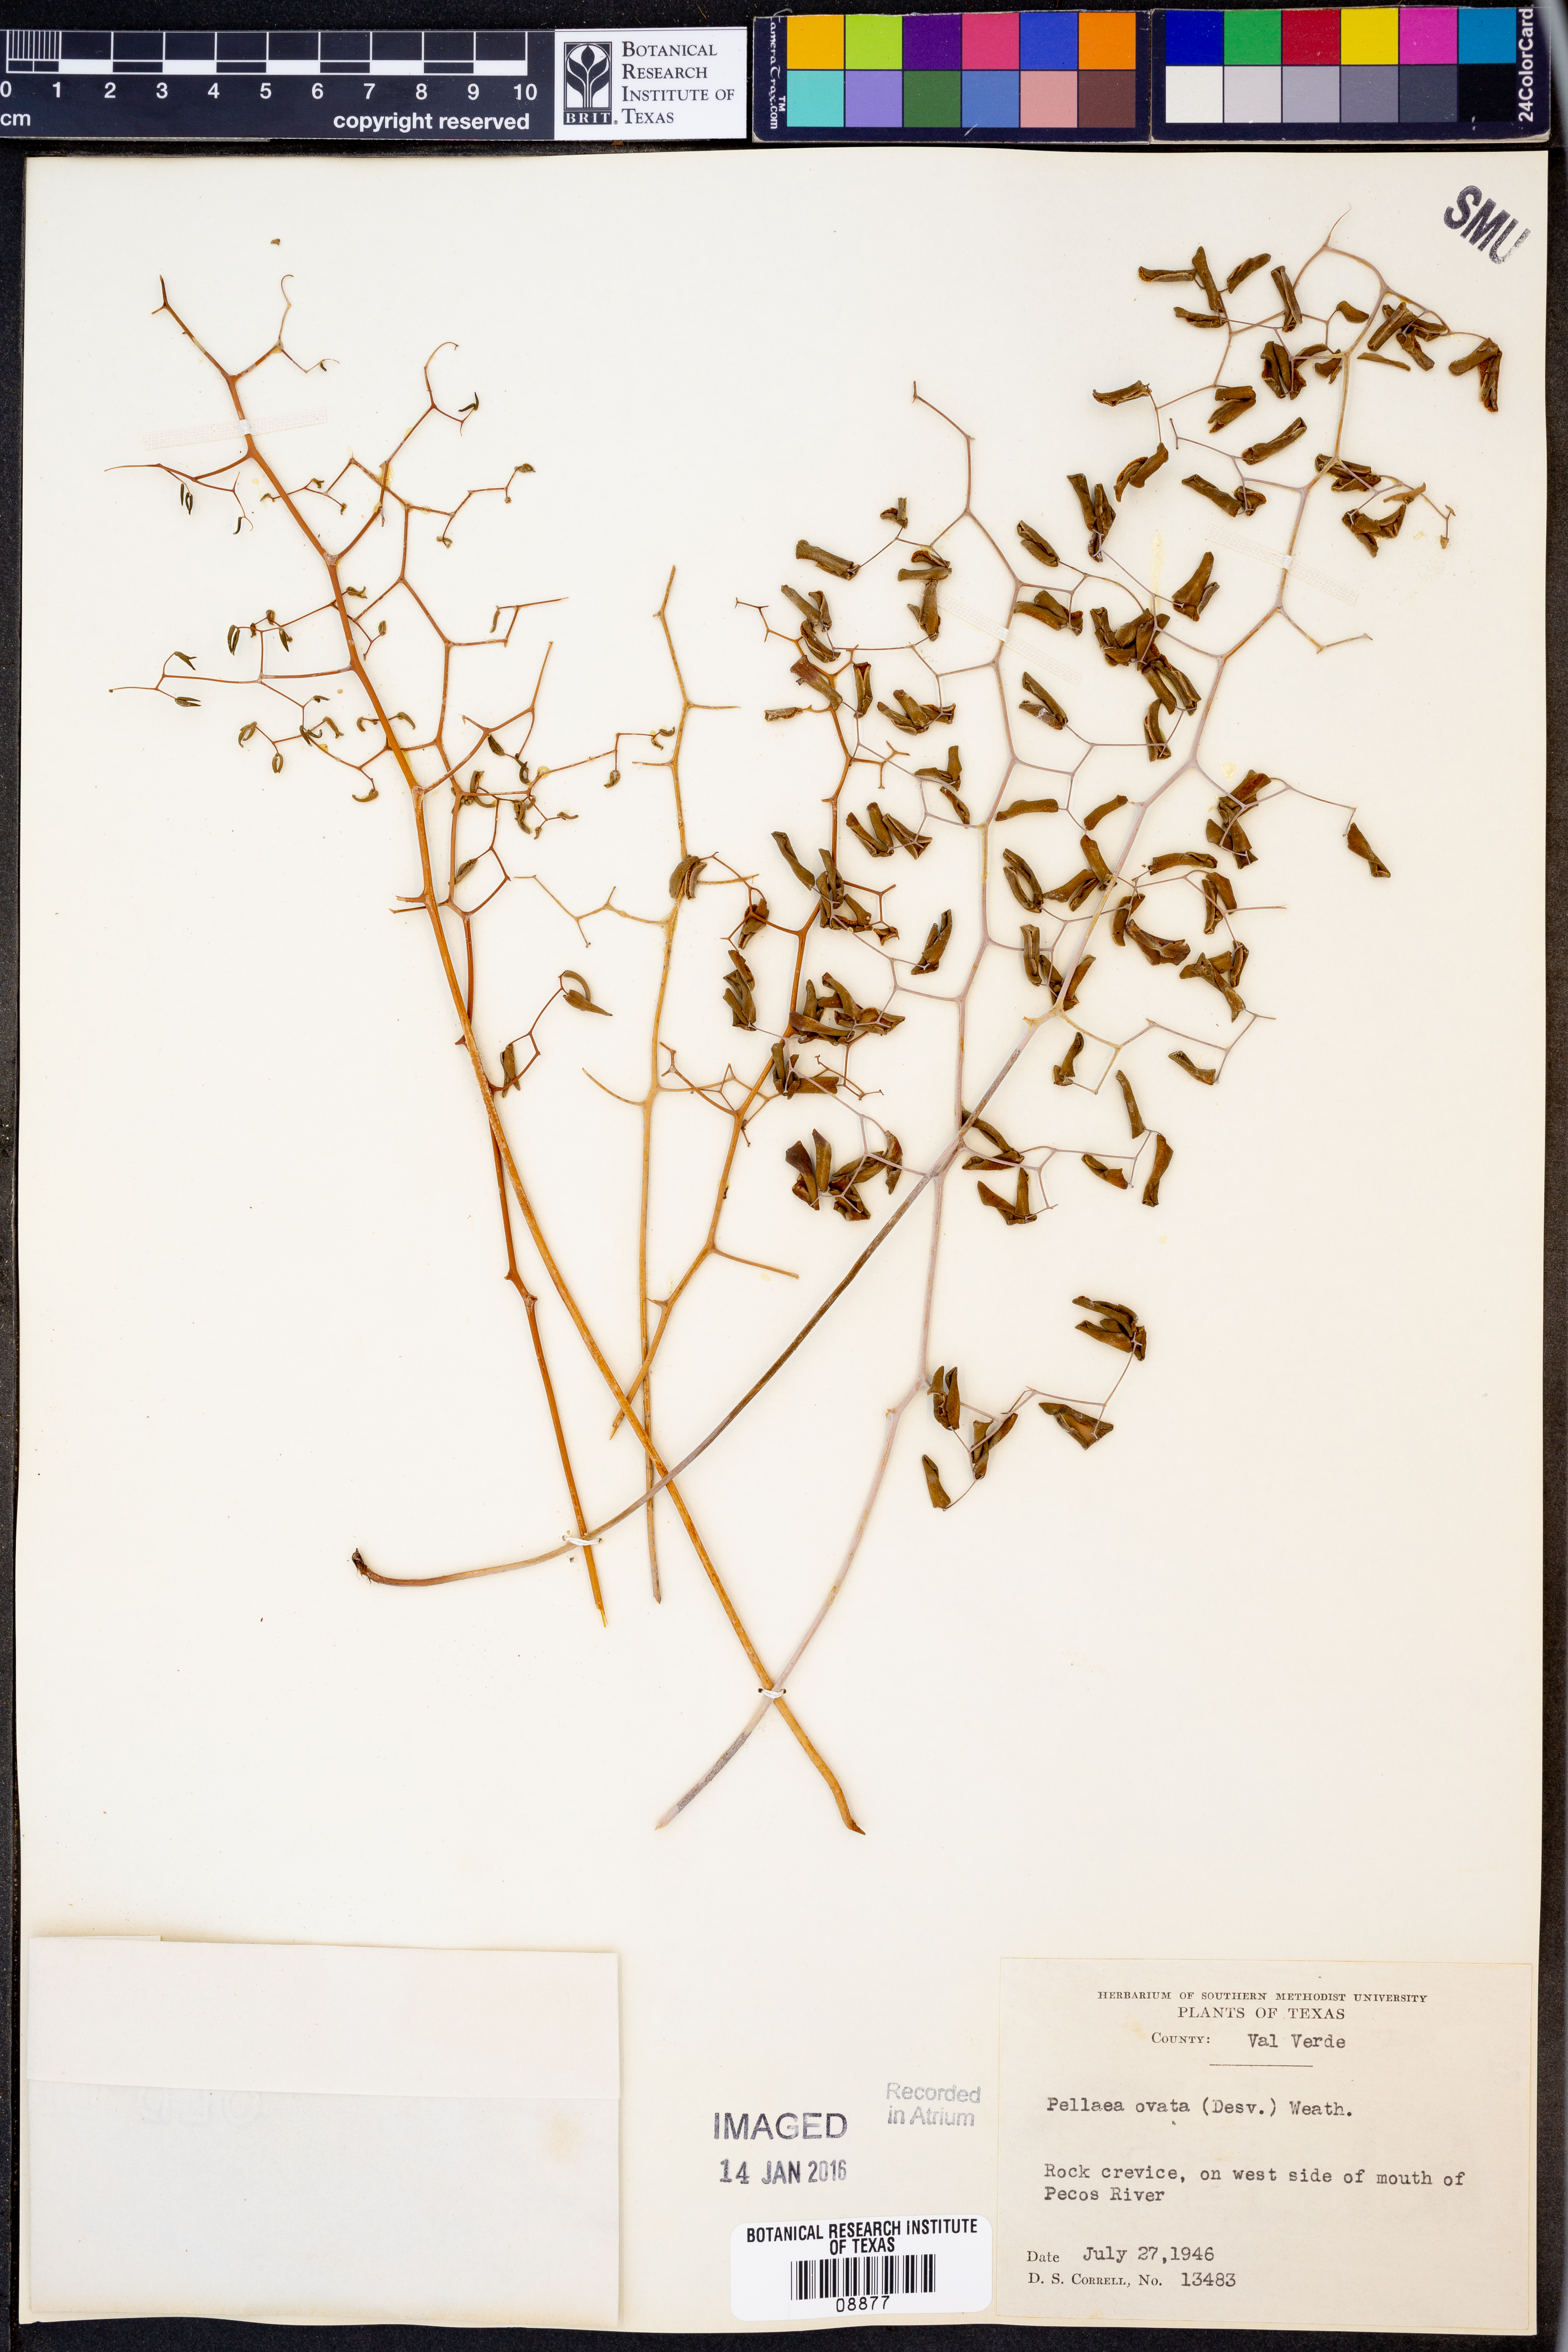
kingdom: Plantae
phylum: Tracheophyta
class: Polypodiopsida
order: Polypodiales
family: Pteridaceae
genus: Pellaea
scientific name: Pellaea ovata
